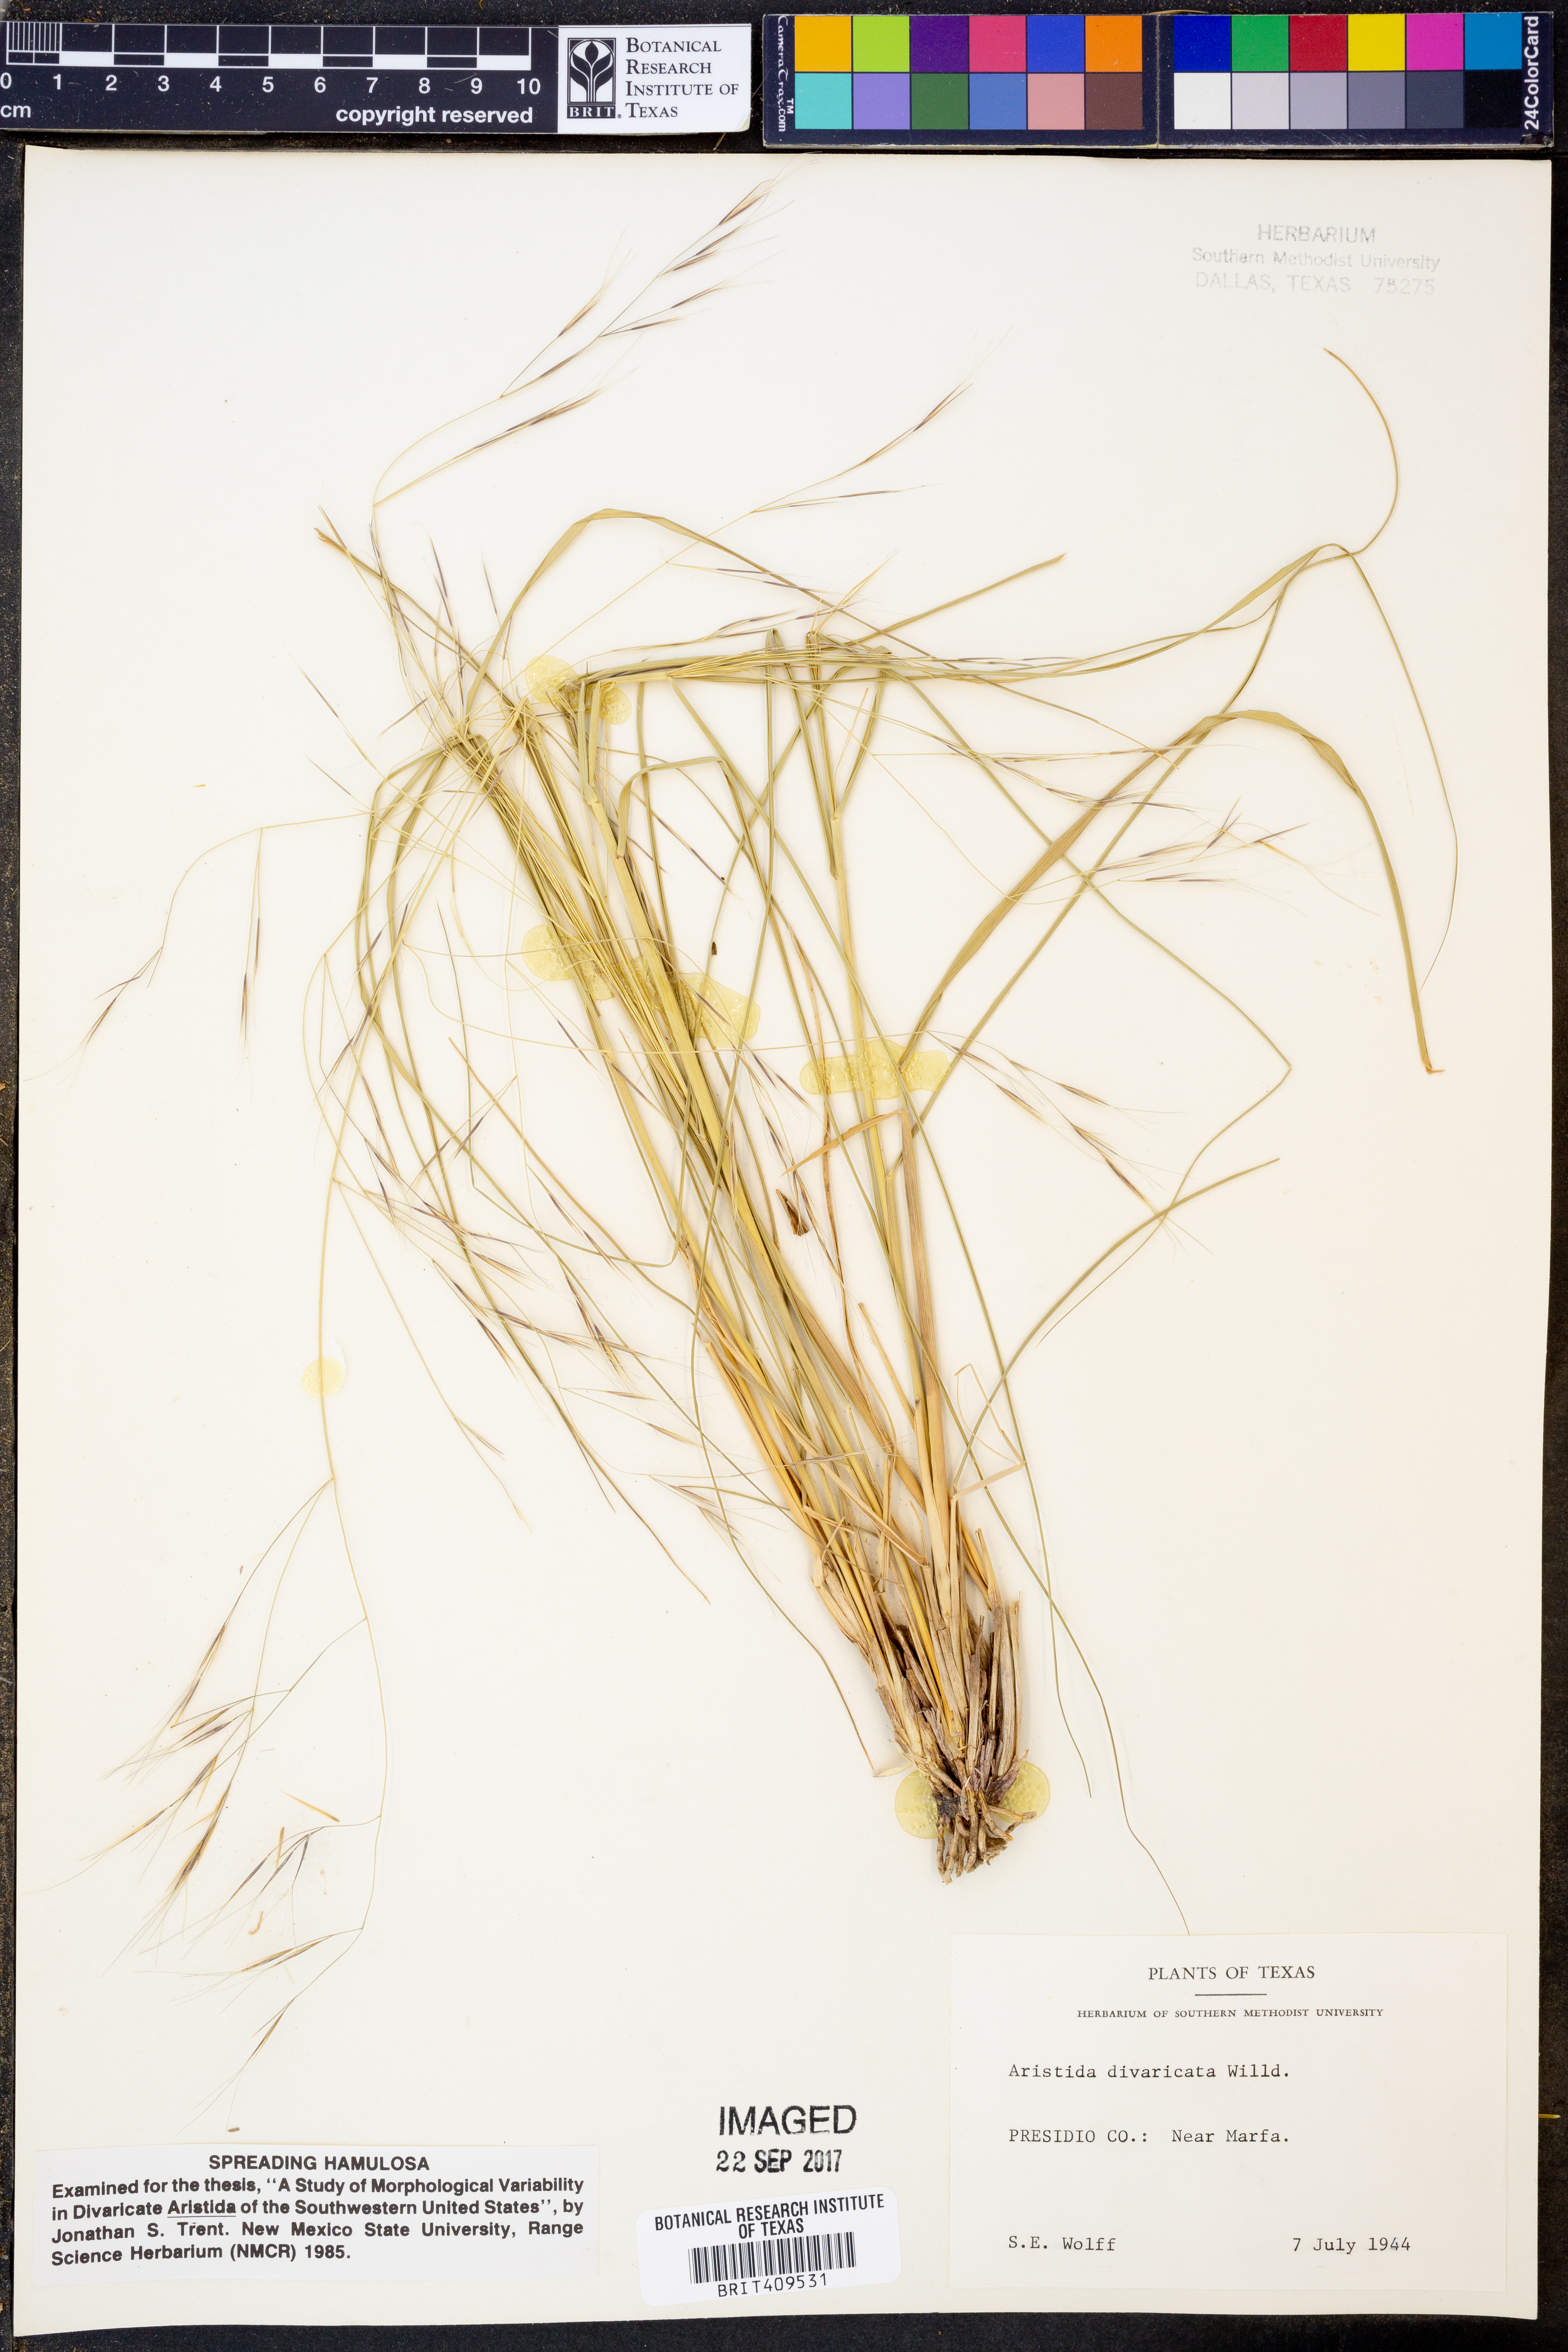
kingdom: Plantae
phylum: Tracheophyta
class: Liliopsida
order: Poales
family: Poaceae
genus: Aristida
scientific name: Aristida divaricata
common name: Poverty grass
